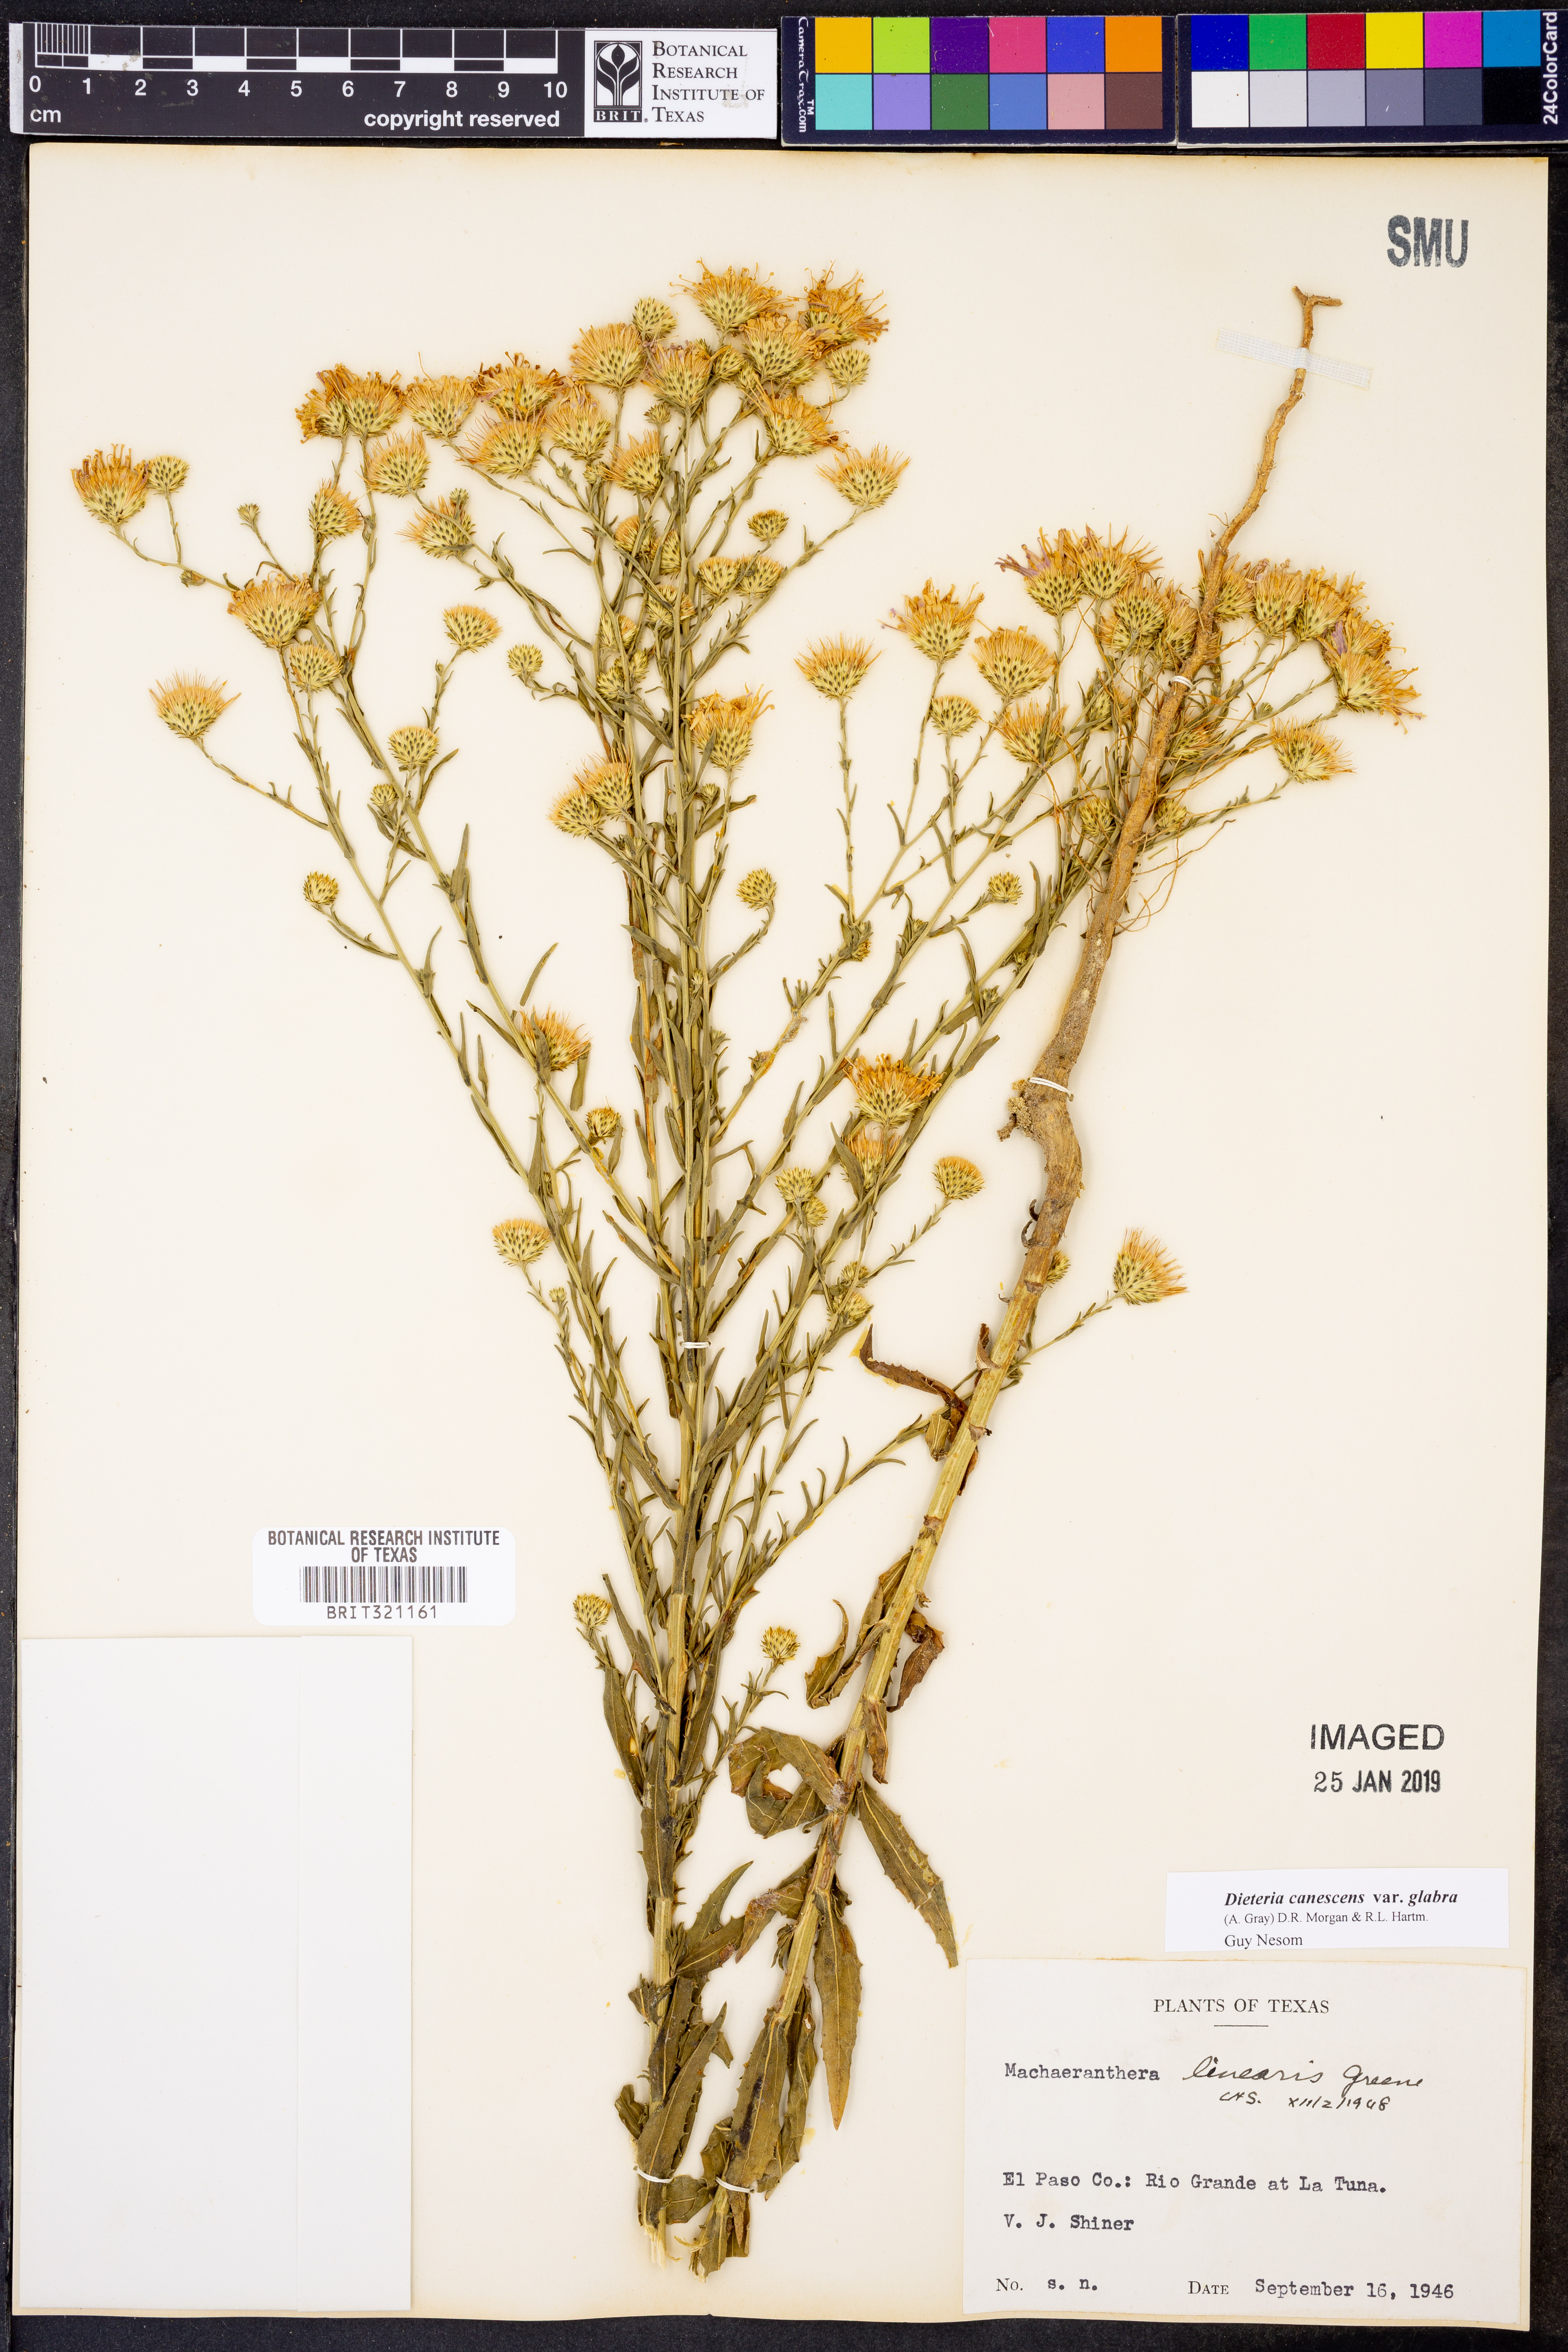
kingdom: Plantae
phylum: Tracheophyta
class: Magnoliopsida
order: Asterales
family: Asteraceae
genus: Dieteria
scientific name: Dieteria canescens
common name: Hoary-aster
